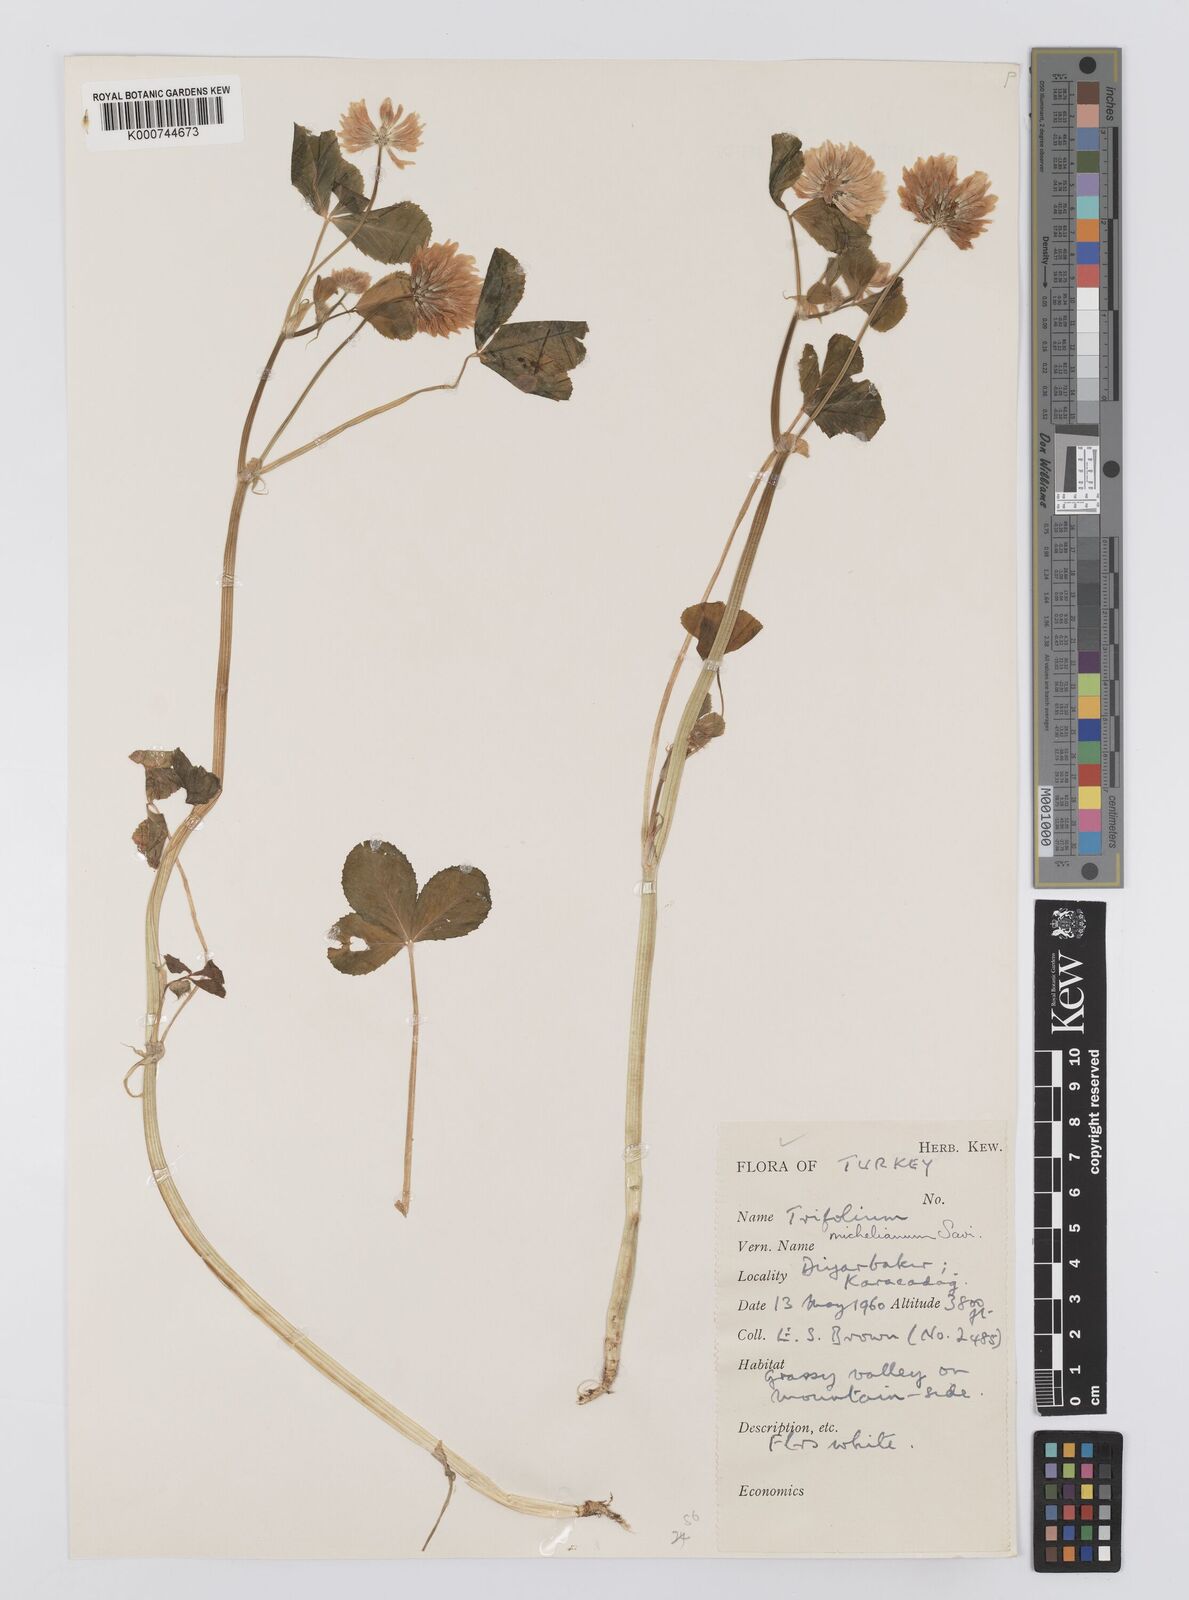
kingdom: Plantae
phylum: Tracheophyta
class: Magnoliopsida
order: Fabales
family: Fabaceae
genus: Trifolium
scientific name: Trifolium michelianum
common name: Bigflower clover
